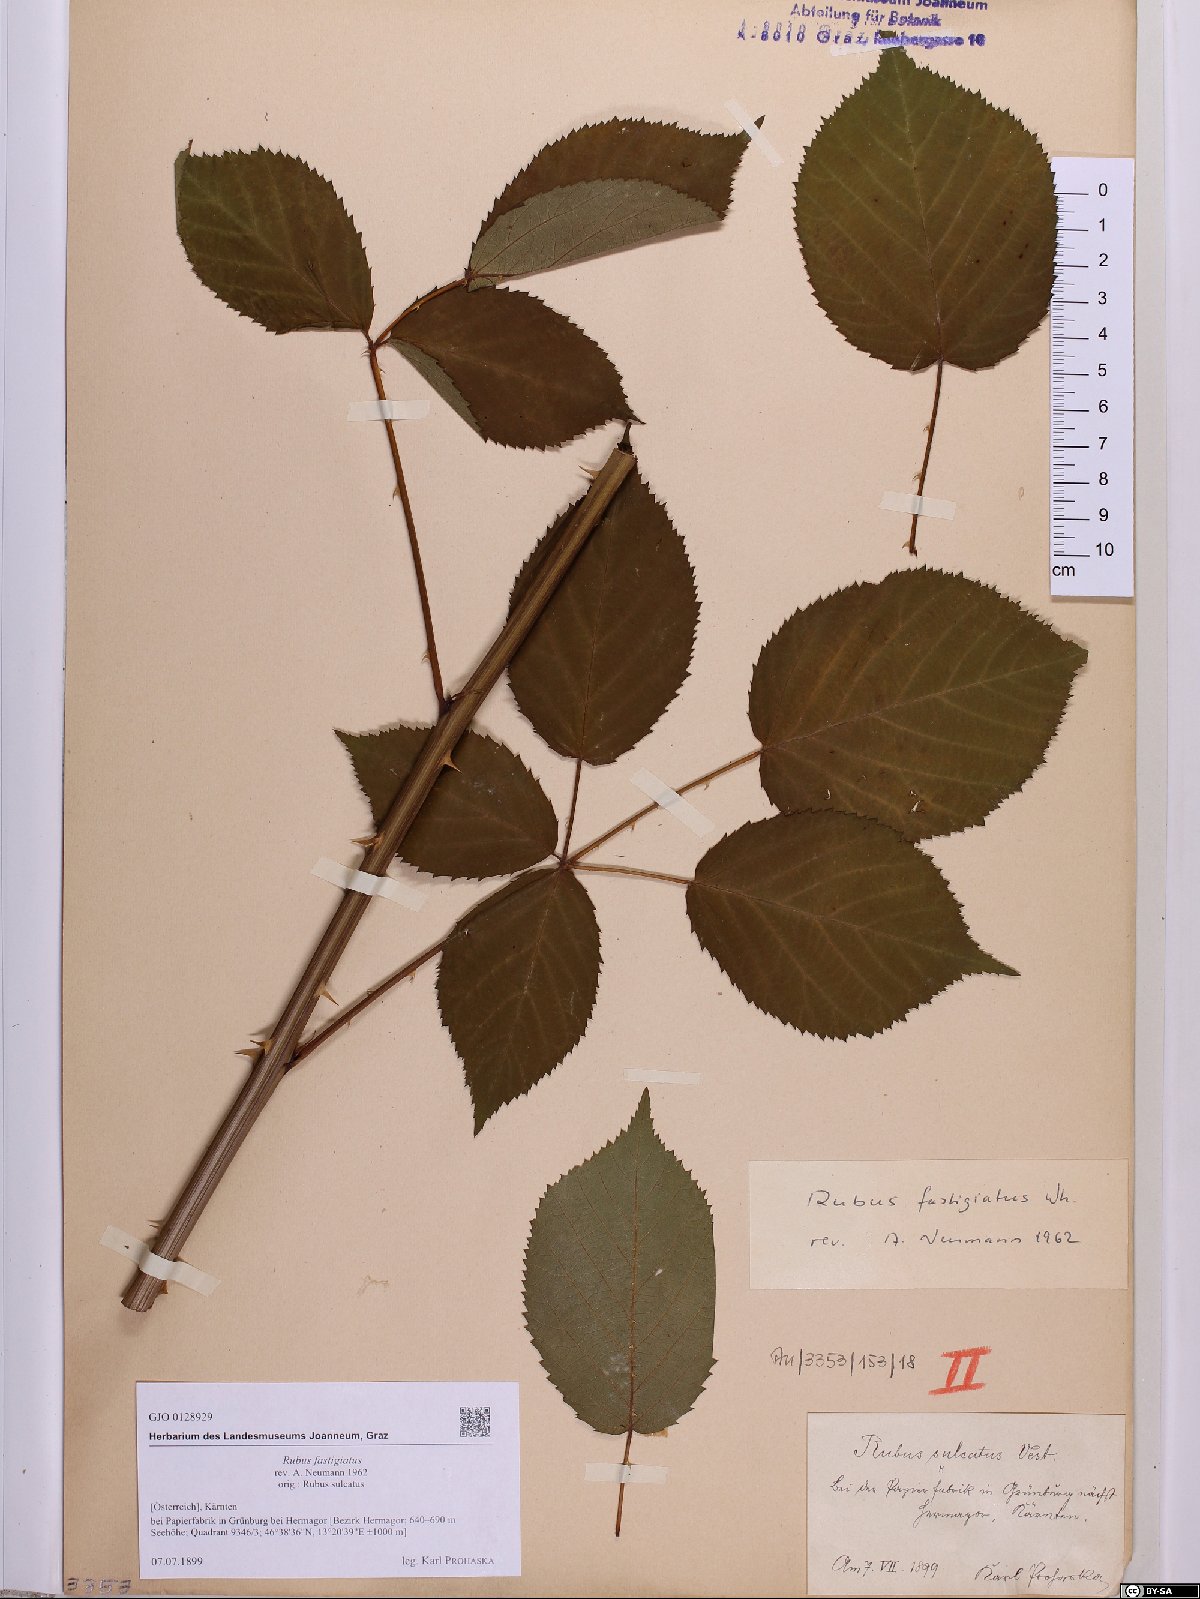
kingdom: Plantae
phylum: Tracheophyta
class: Magnoliopsida
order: Rosales
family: Rosaceae
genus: Rubus
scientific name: Rubus polonicus
